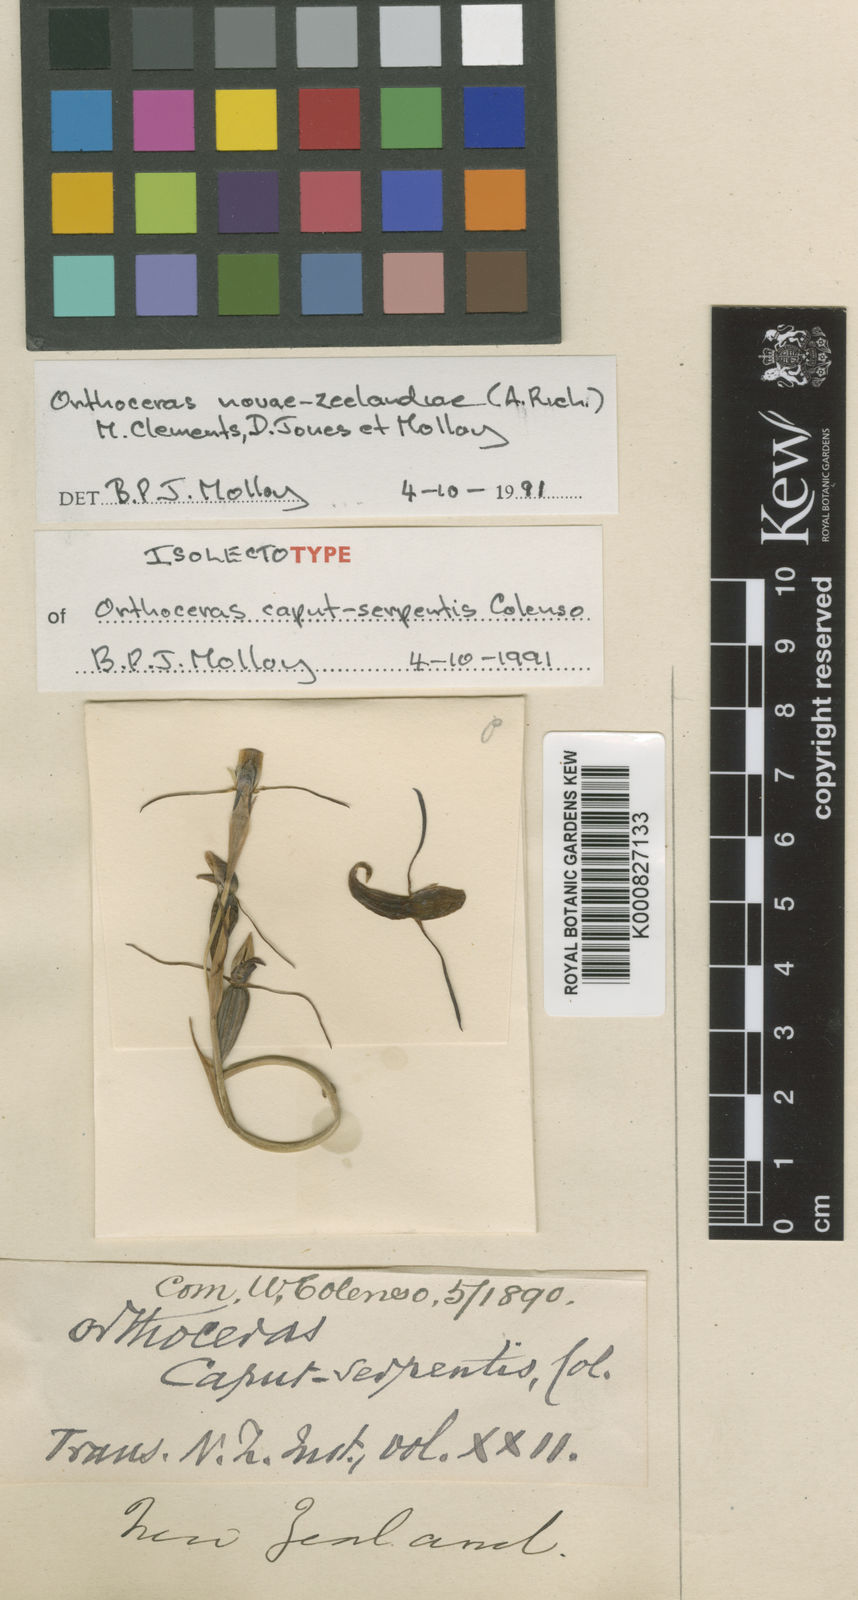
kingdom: Plantae
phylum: Tracheophyta
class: Liliopsida
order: Asparagales
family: Orchidaceae
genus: Orthoceras
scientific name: Orthoceras strictum
